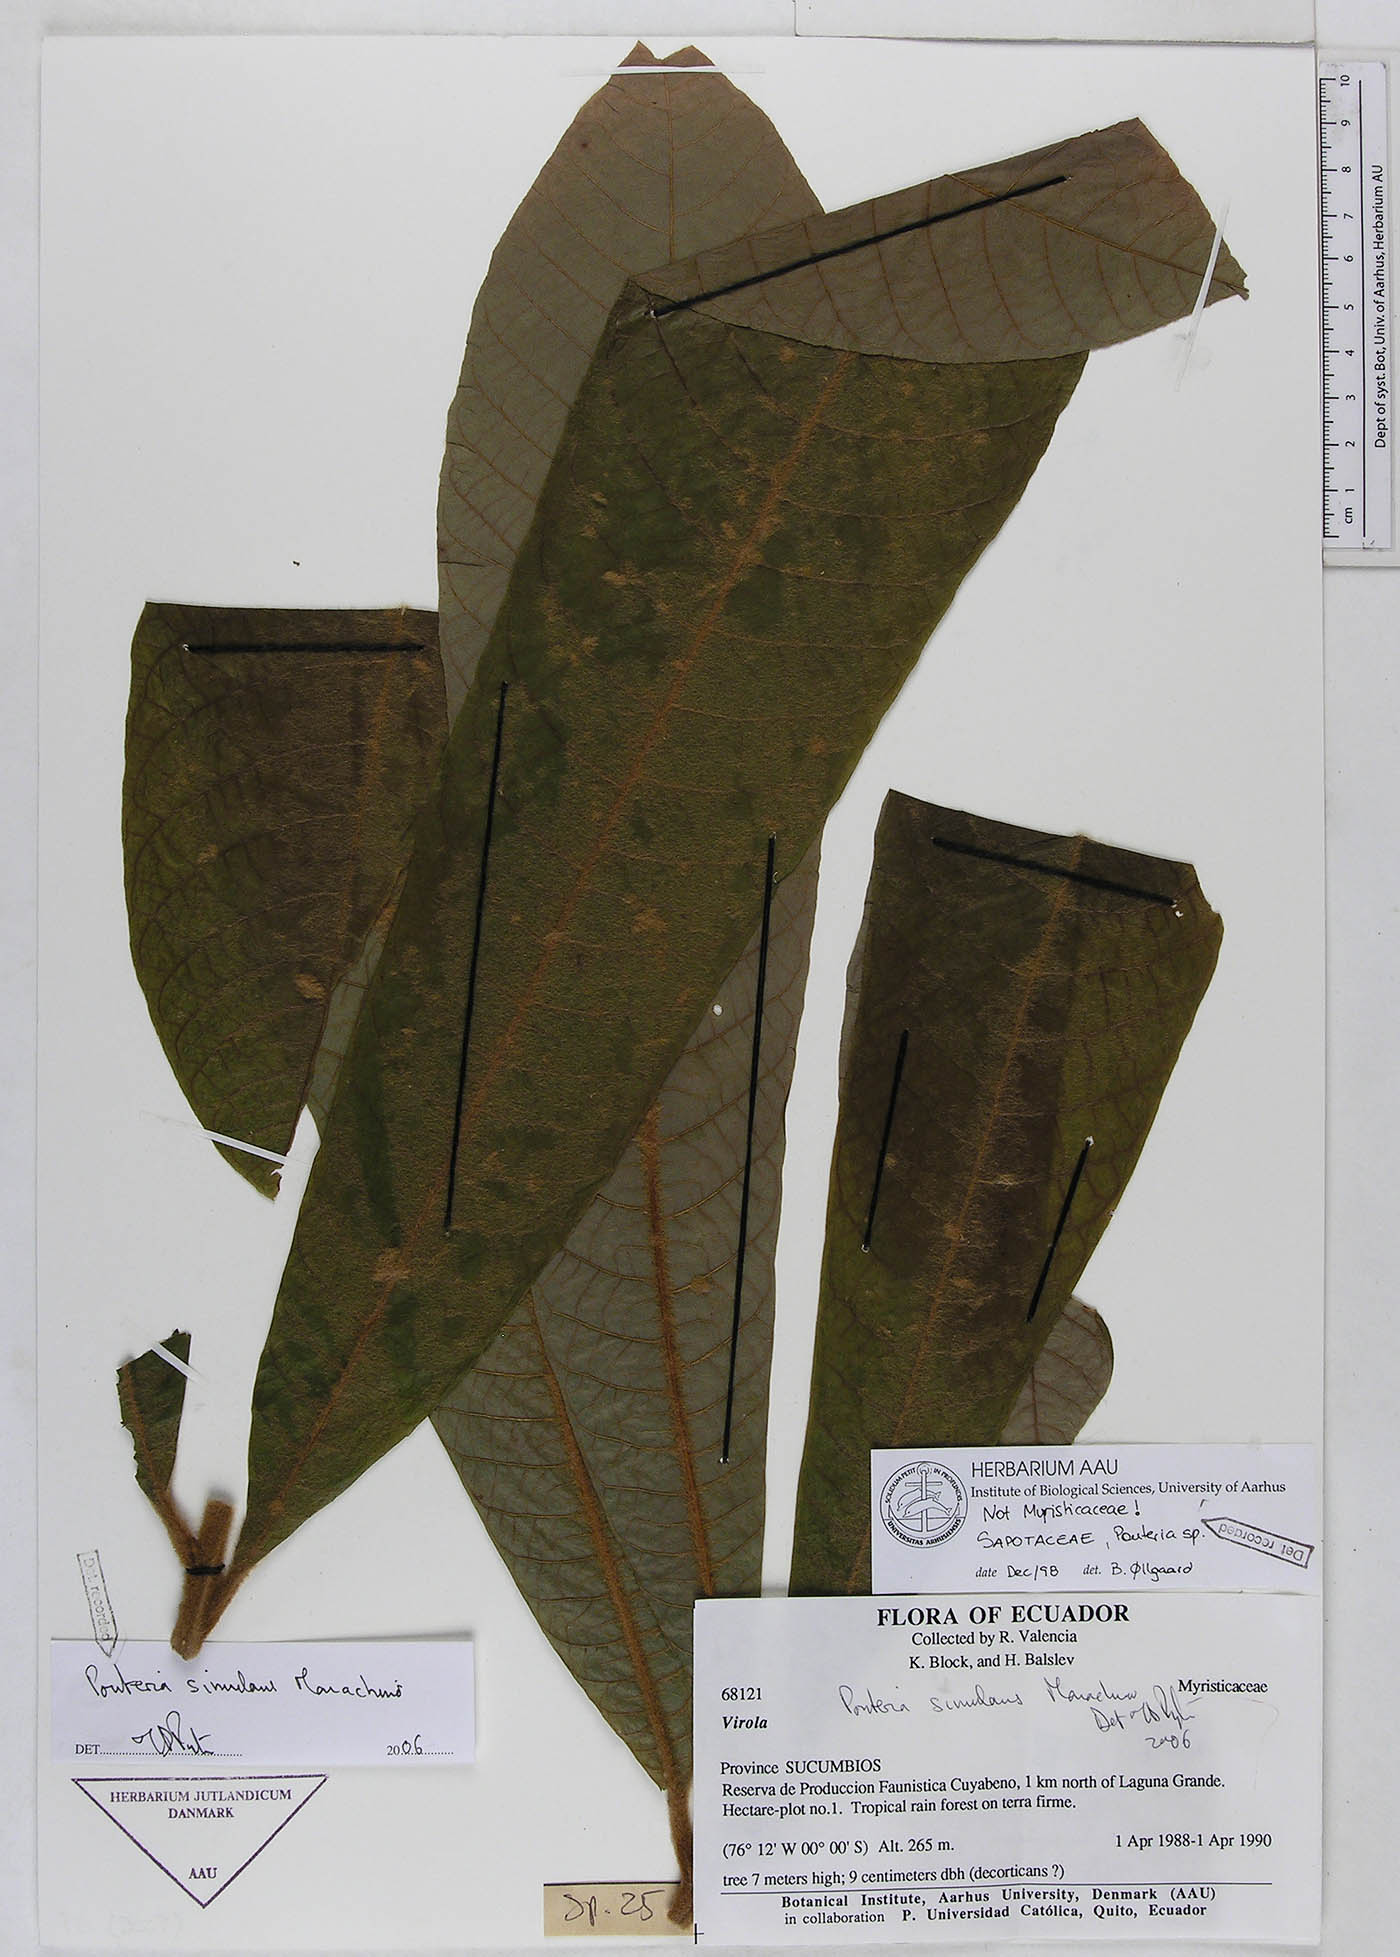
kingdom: Plantae
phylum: Tracheophyta
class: Magnoliopsida
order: Ericales
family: Sapotaceae
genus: Pouteria
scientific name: Pouteria simulans
